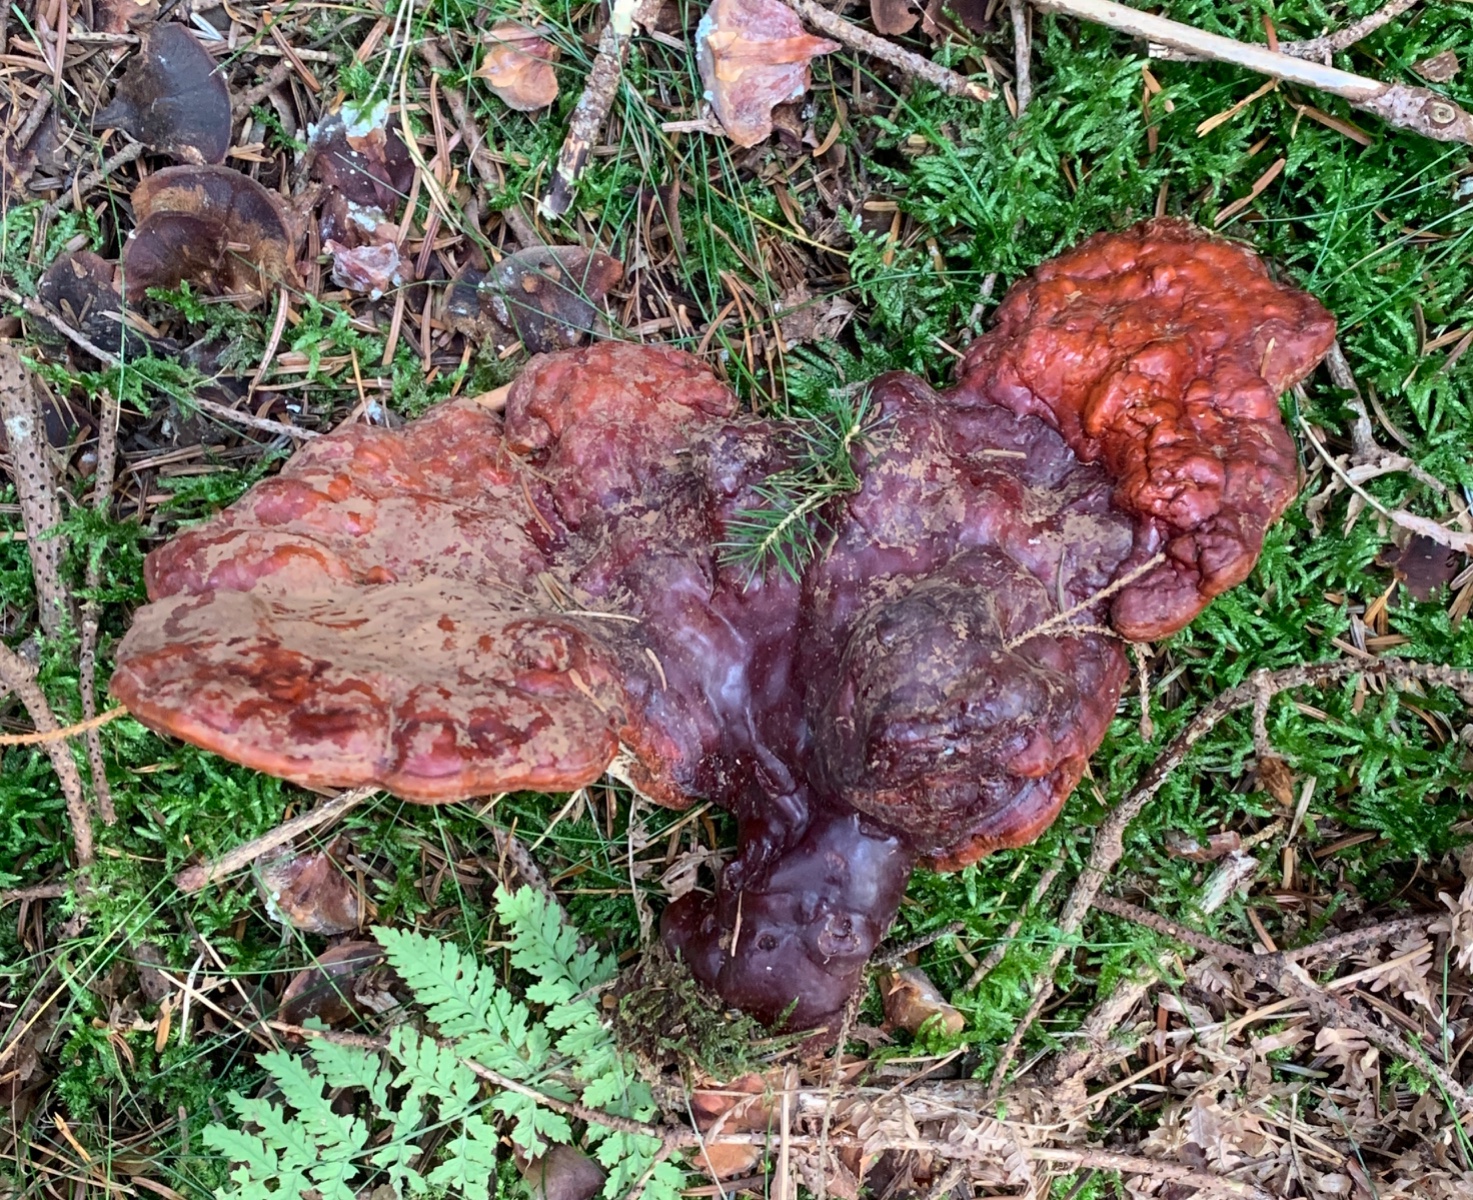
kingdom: Fungi
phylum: Basidiomycota
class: Agaricomycetes
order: Polyporales
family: Polyporaceae
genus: Ganoderma
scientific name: Ganoderma lucidum
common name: skinnende lakporesvamp
